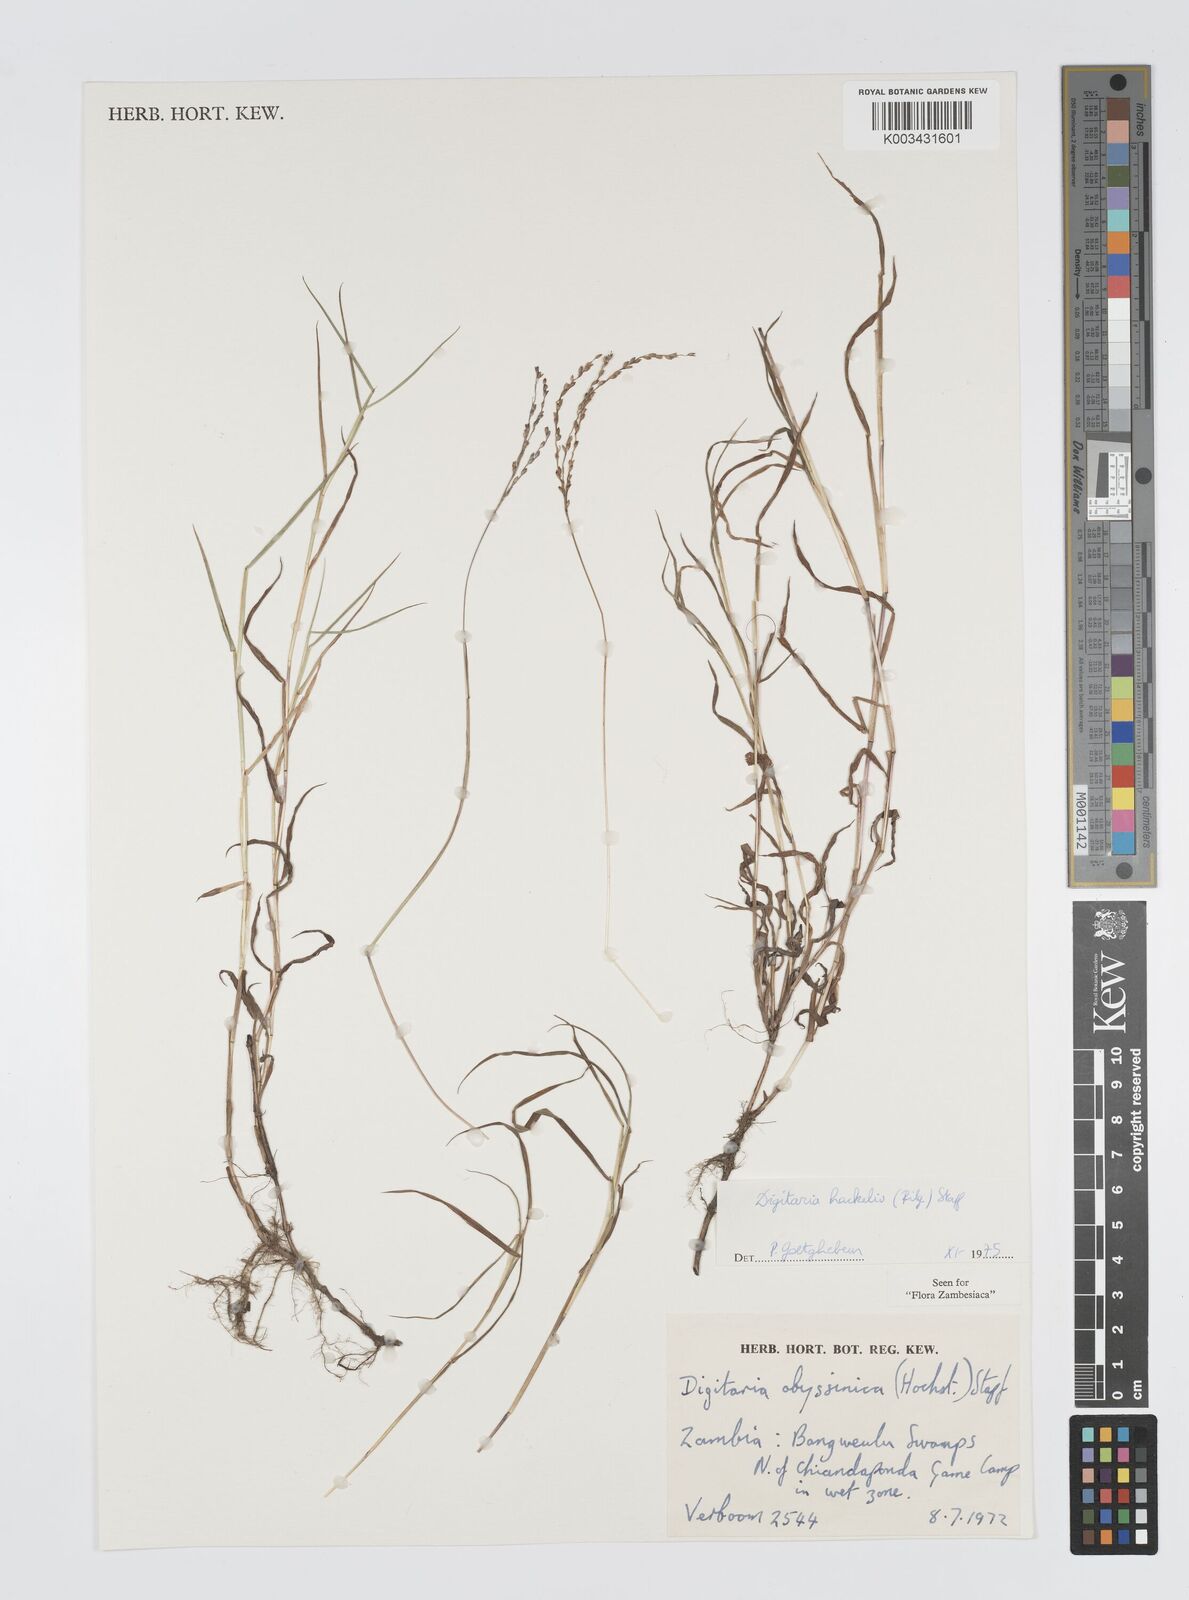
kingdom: Plantae
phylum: Tracheophyta
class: Liliopsida
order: Poales
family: Poaceae
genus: Digitaria
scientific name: Digitaria abyssinica
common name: African couchgrass
